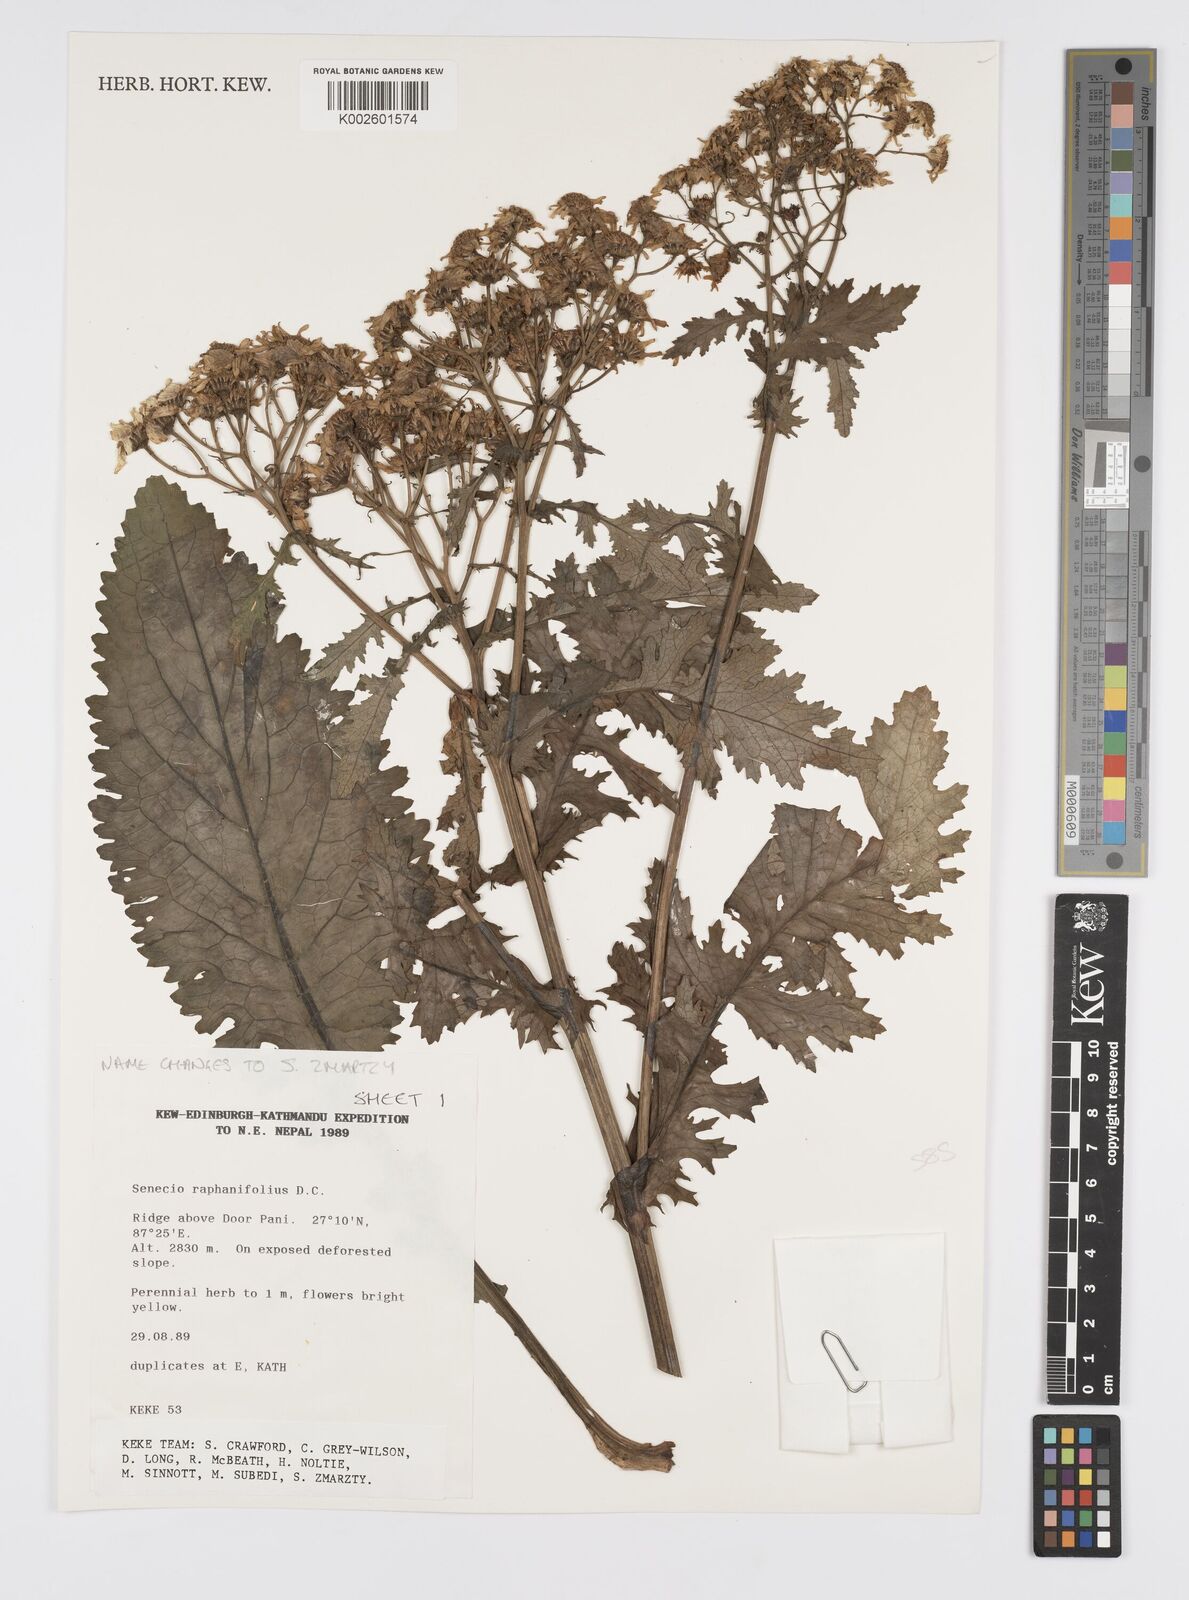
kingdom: Plantae
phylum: Tracheophyta
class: Magnoliopsida
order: Asterales
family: Asteraceae
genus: Jacobaea
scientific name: Jacobaea raphanifolia
